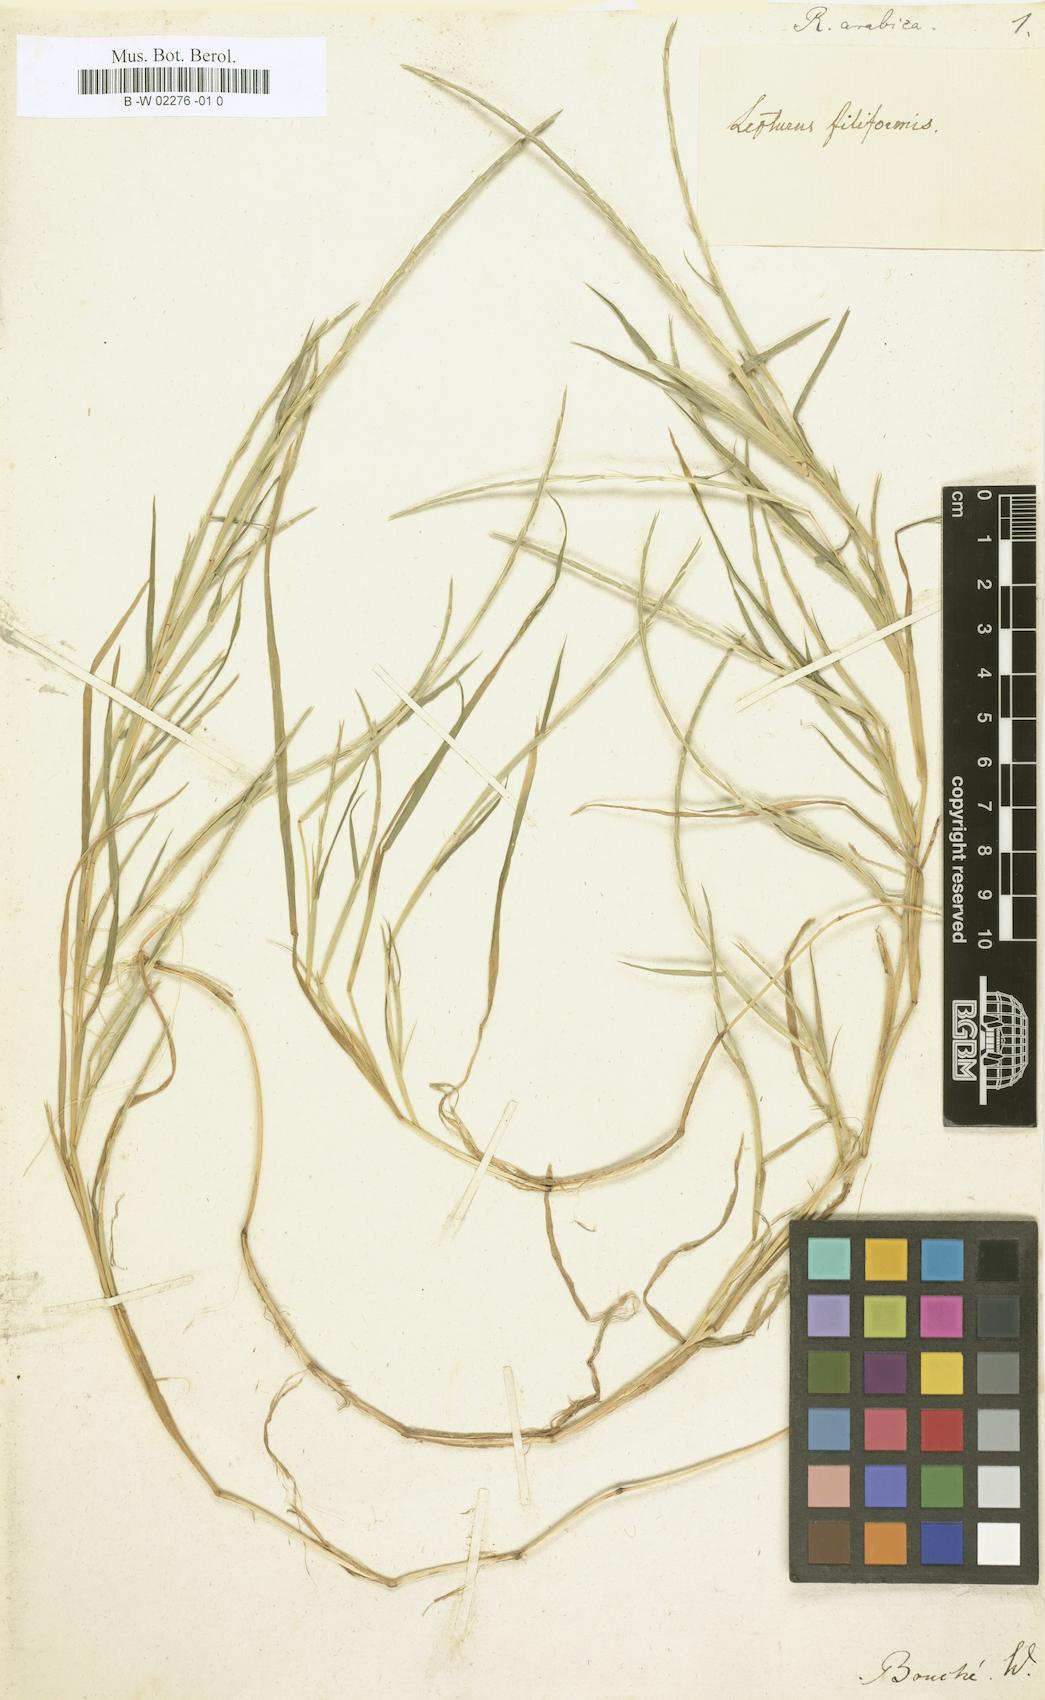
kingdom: Plantae
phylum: Tracheophyta
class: Liliopsida
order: Poales
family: Poaceae
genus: Parapholis
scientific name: Parapholis filiformis
